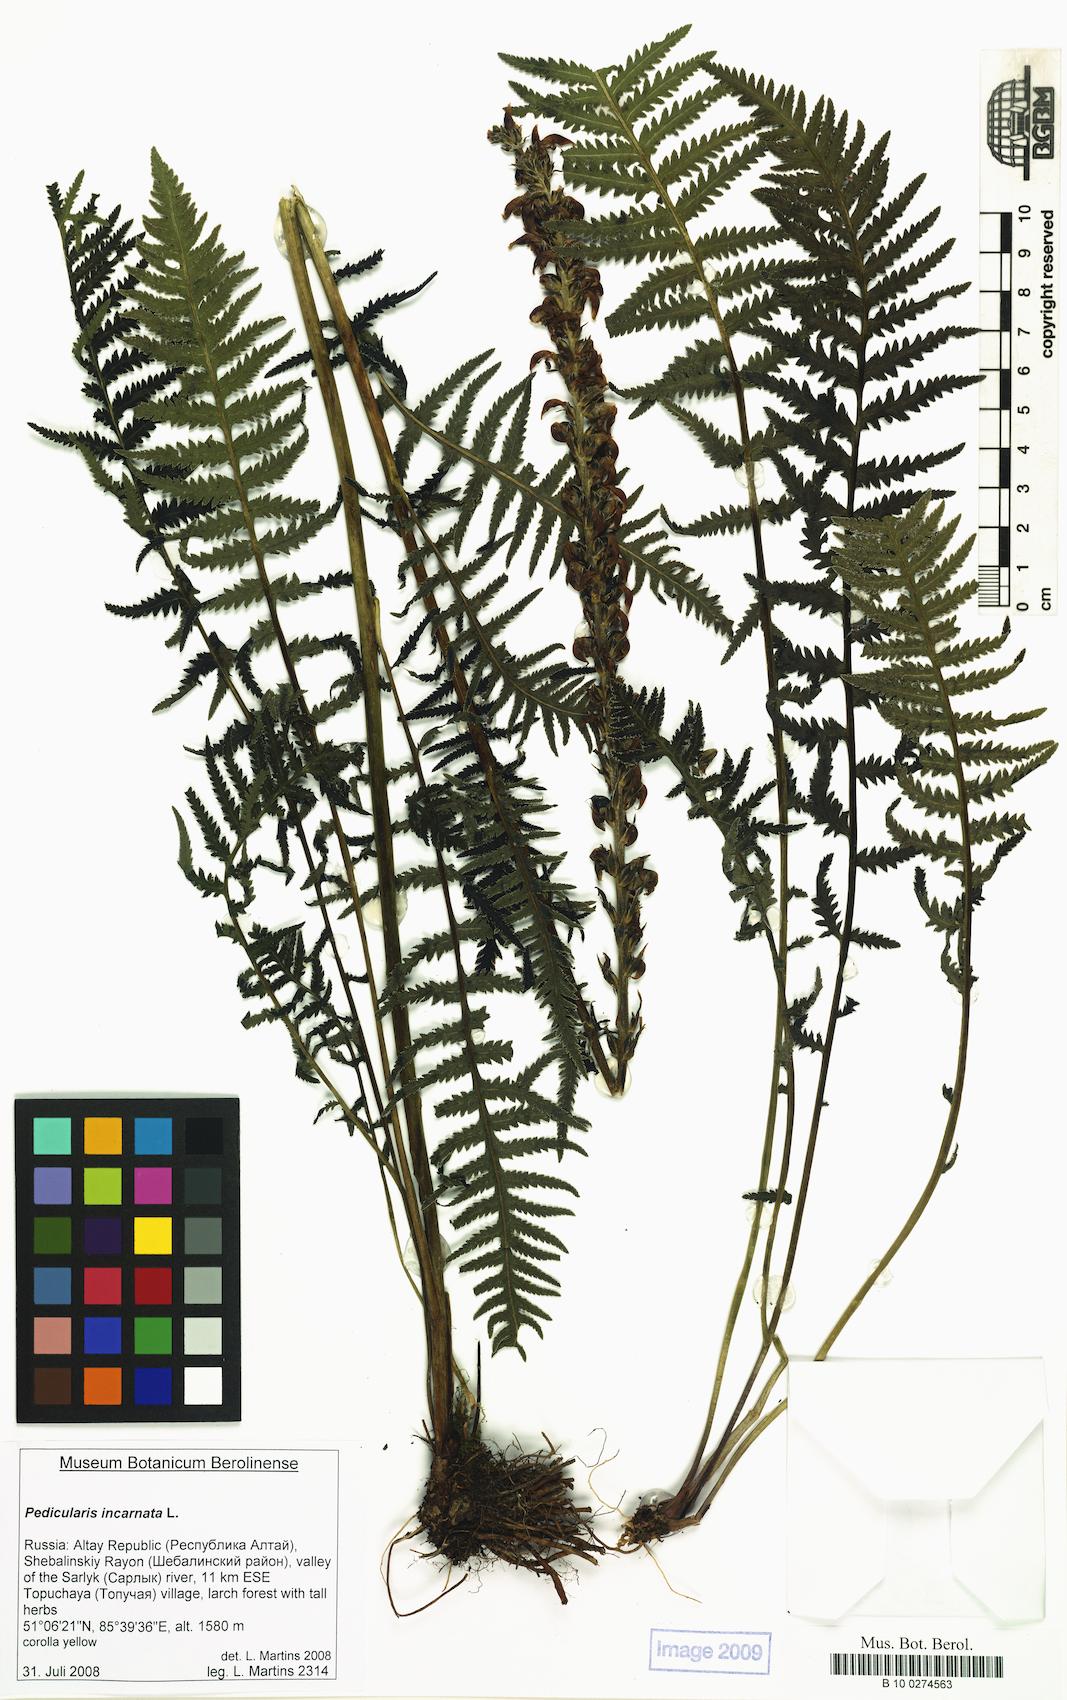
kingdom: Plantae
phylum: Tracheophyta
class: Magnoliopsida
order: Lamiales
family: Orobanchaceae
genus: Pedicularis
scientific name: Pedicularis incarnata
